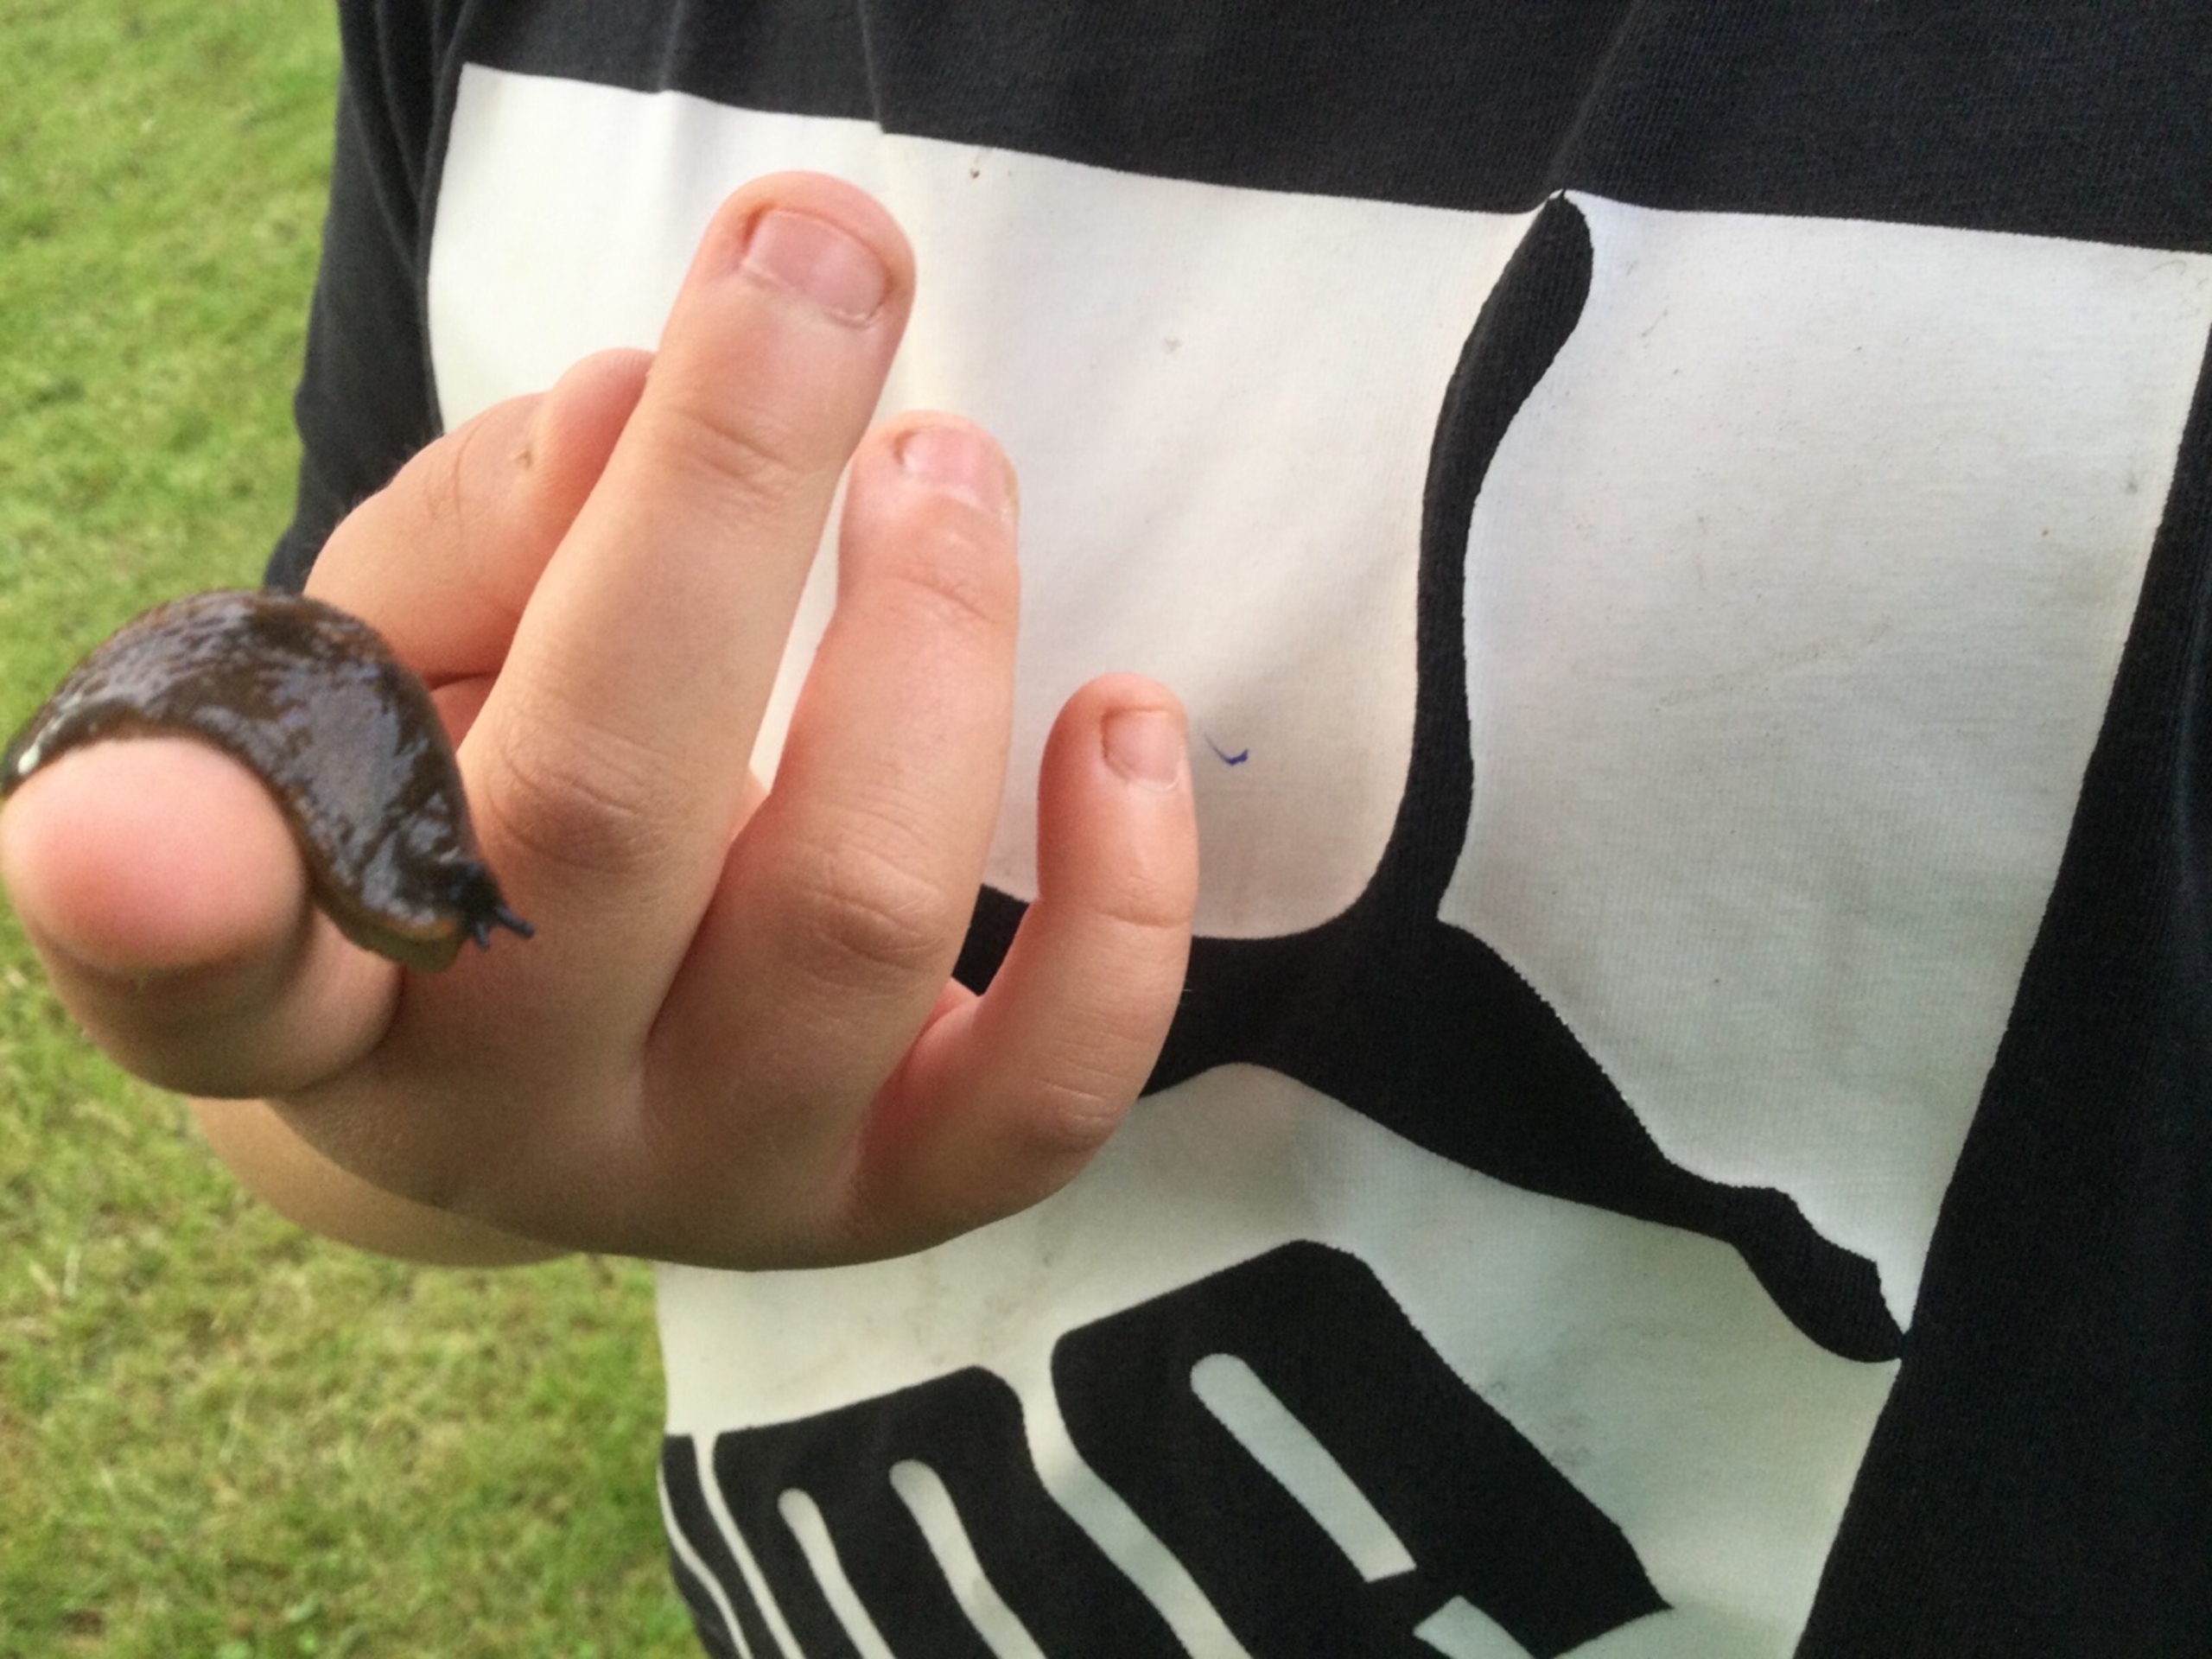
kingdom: Animalia
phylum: Mollusca
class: Gastropoda
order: Stylommatophora
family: Arionidae
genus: Arion
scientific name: Arion
